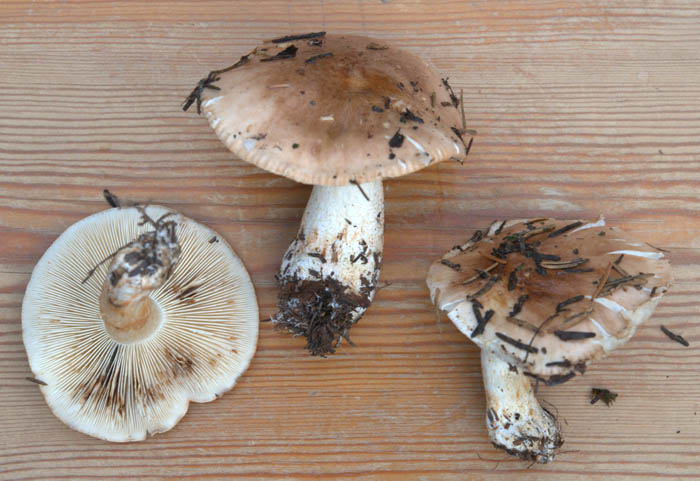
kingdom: Fungi
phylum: Basidiomycota
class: Agaricomycetes
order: Agaricales
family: Tricholomataceae
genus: Tricholoma
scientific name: Tricholoma stans
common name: stolt ridderhat
